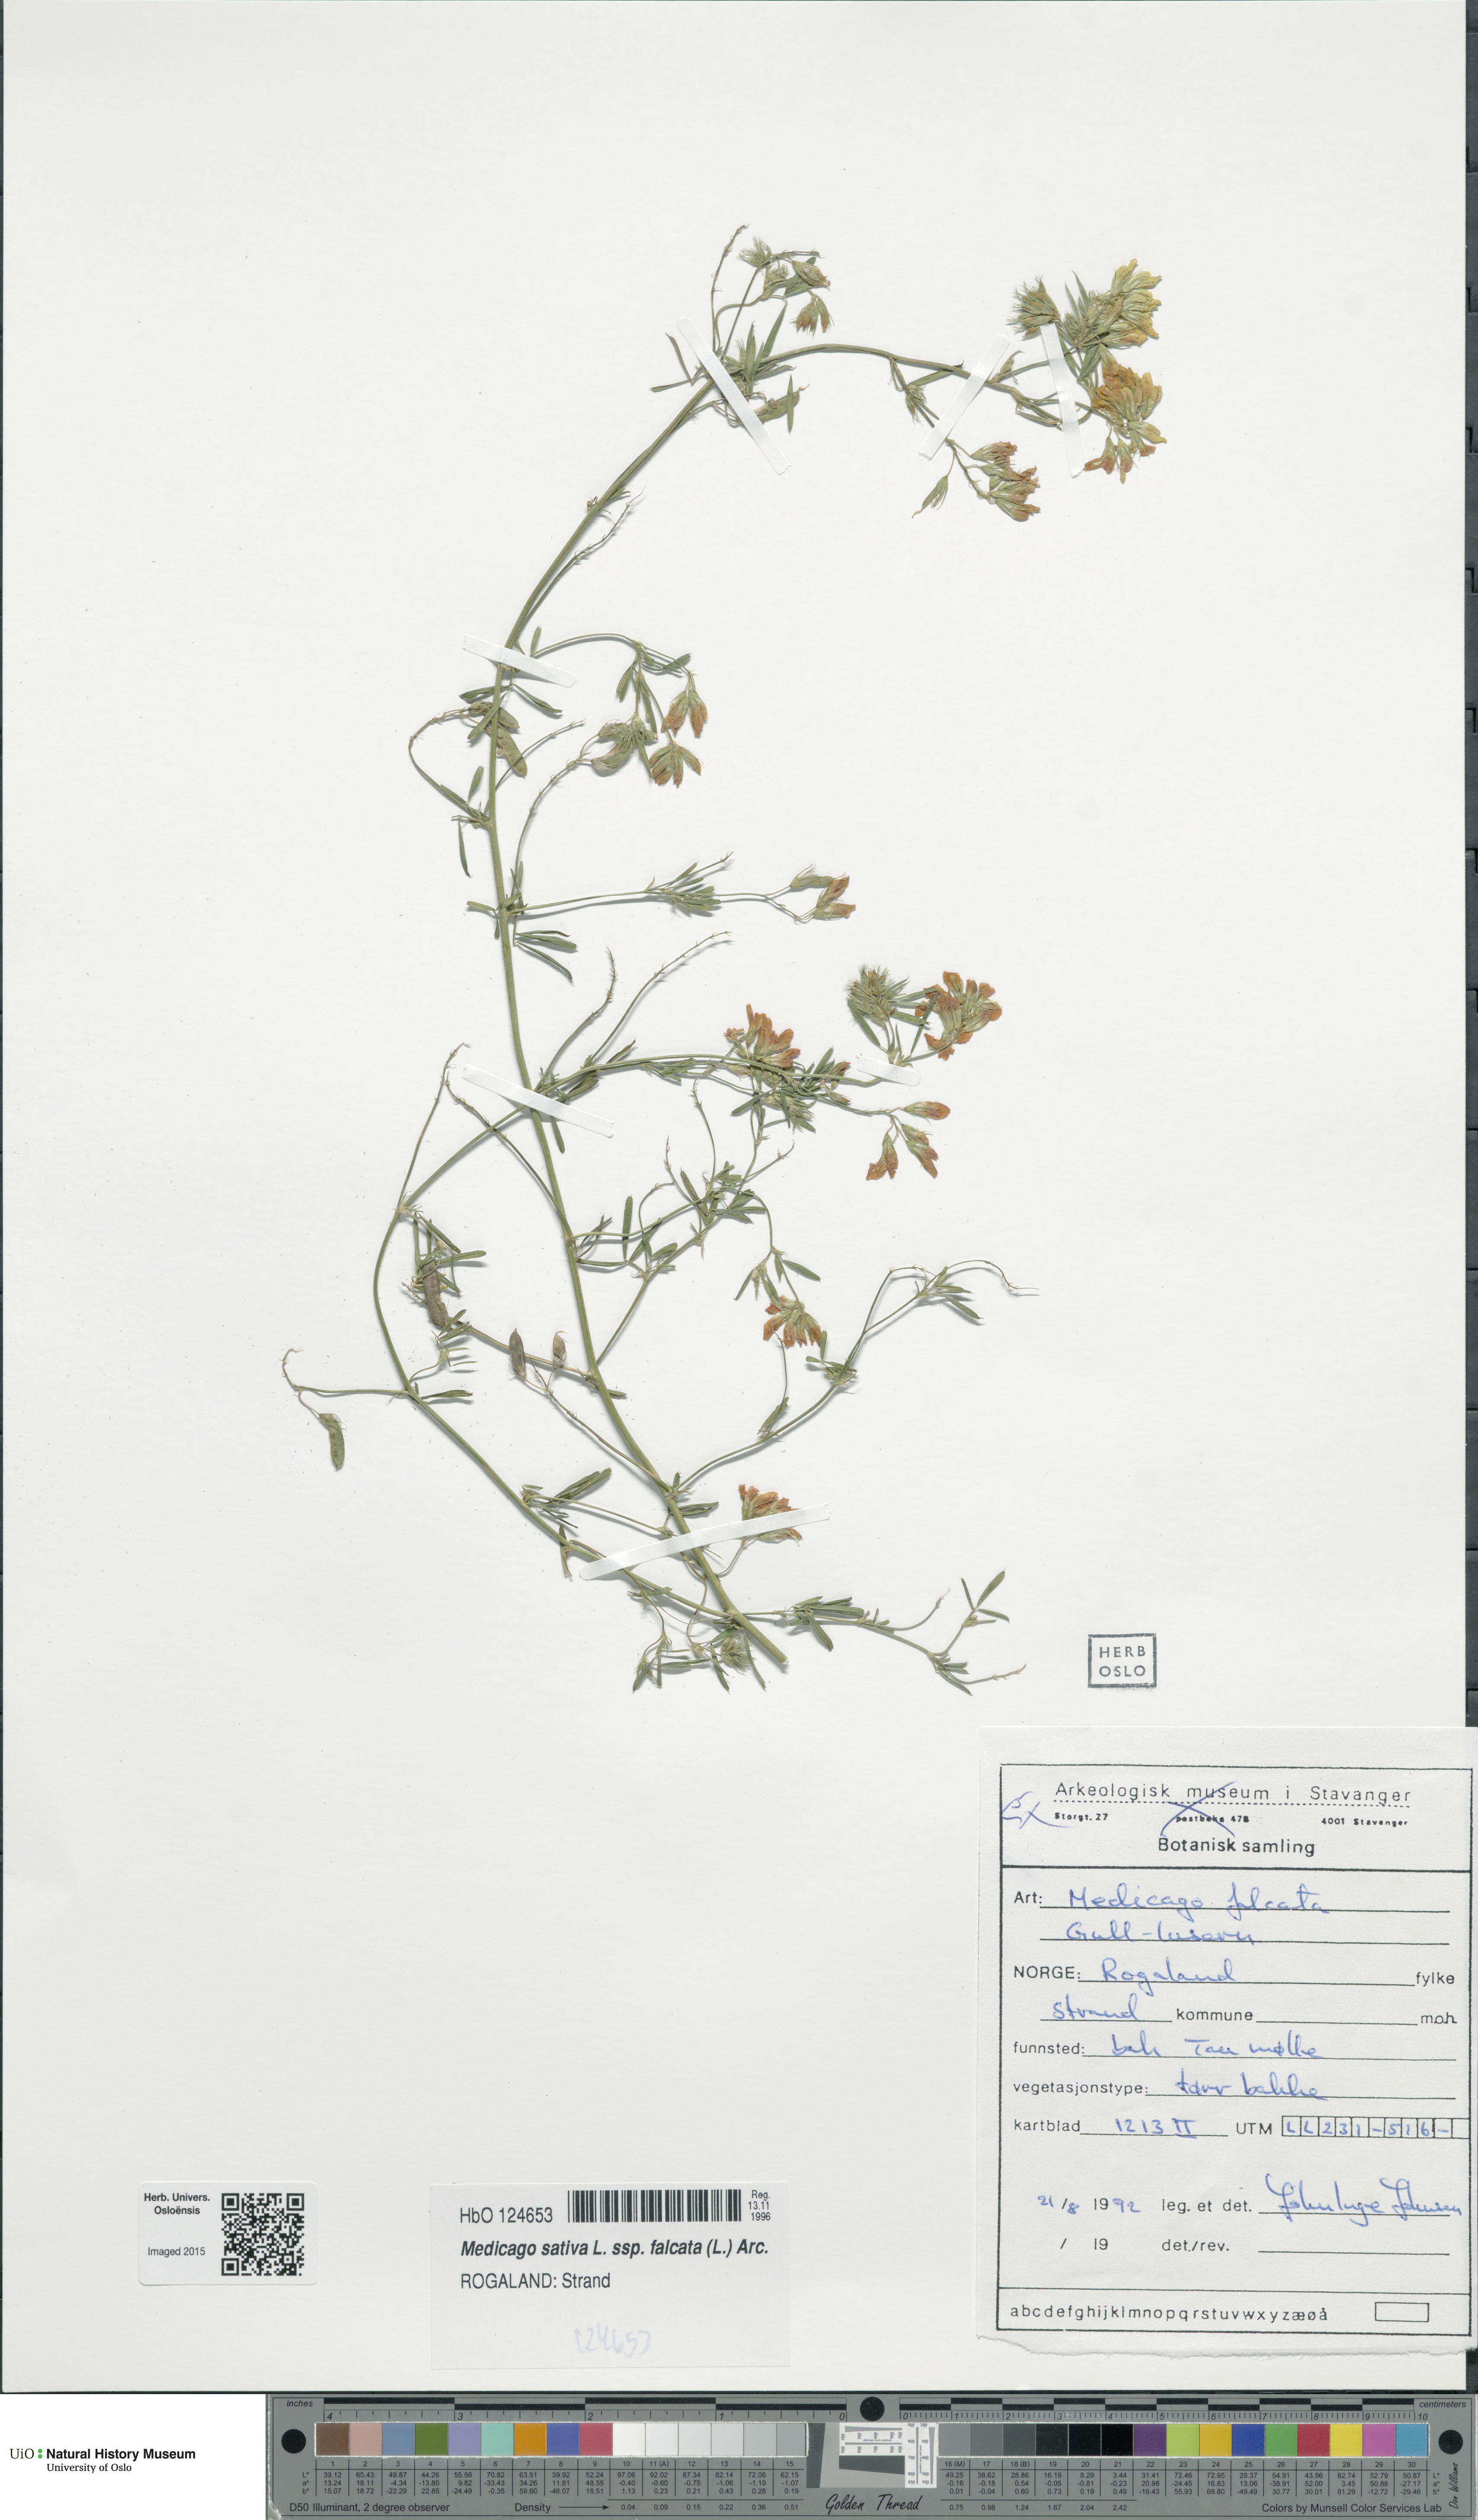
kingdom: Plantae
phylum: Tracheophyta
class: Magnoliopsida
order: Fabales
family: Fabaceae
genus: Medicago
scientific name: Medicago falcata
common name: Sickle medick
